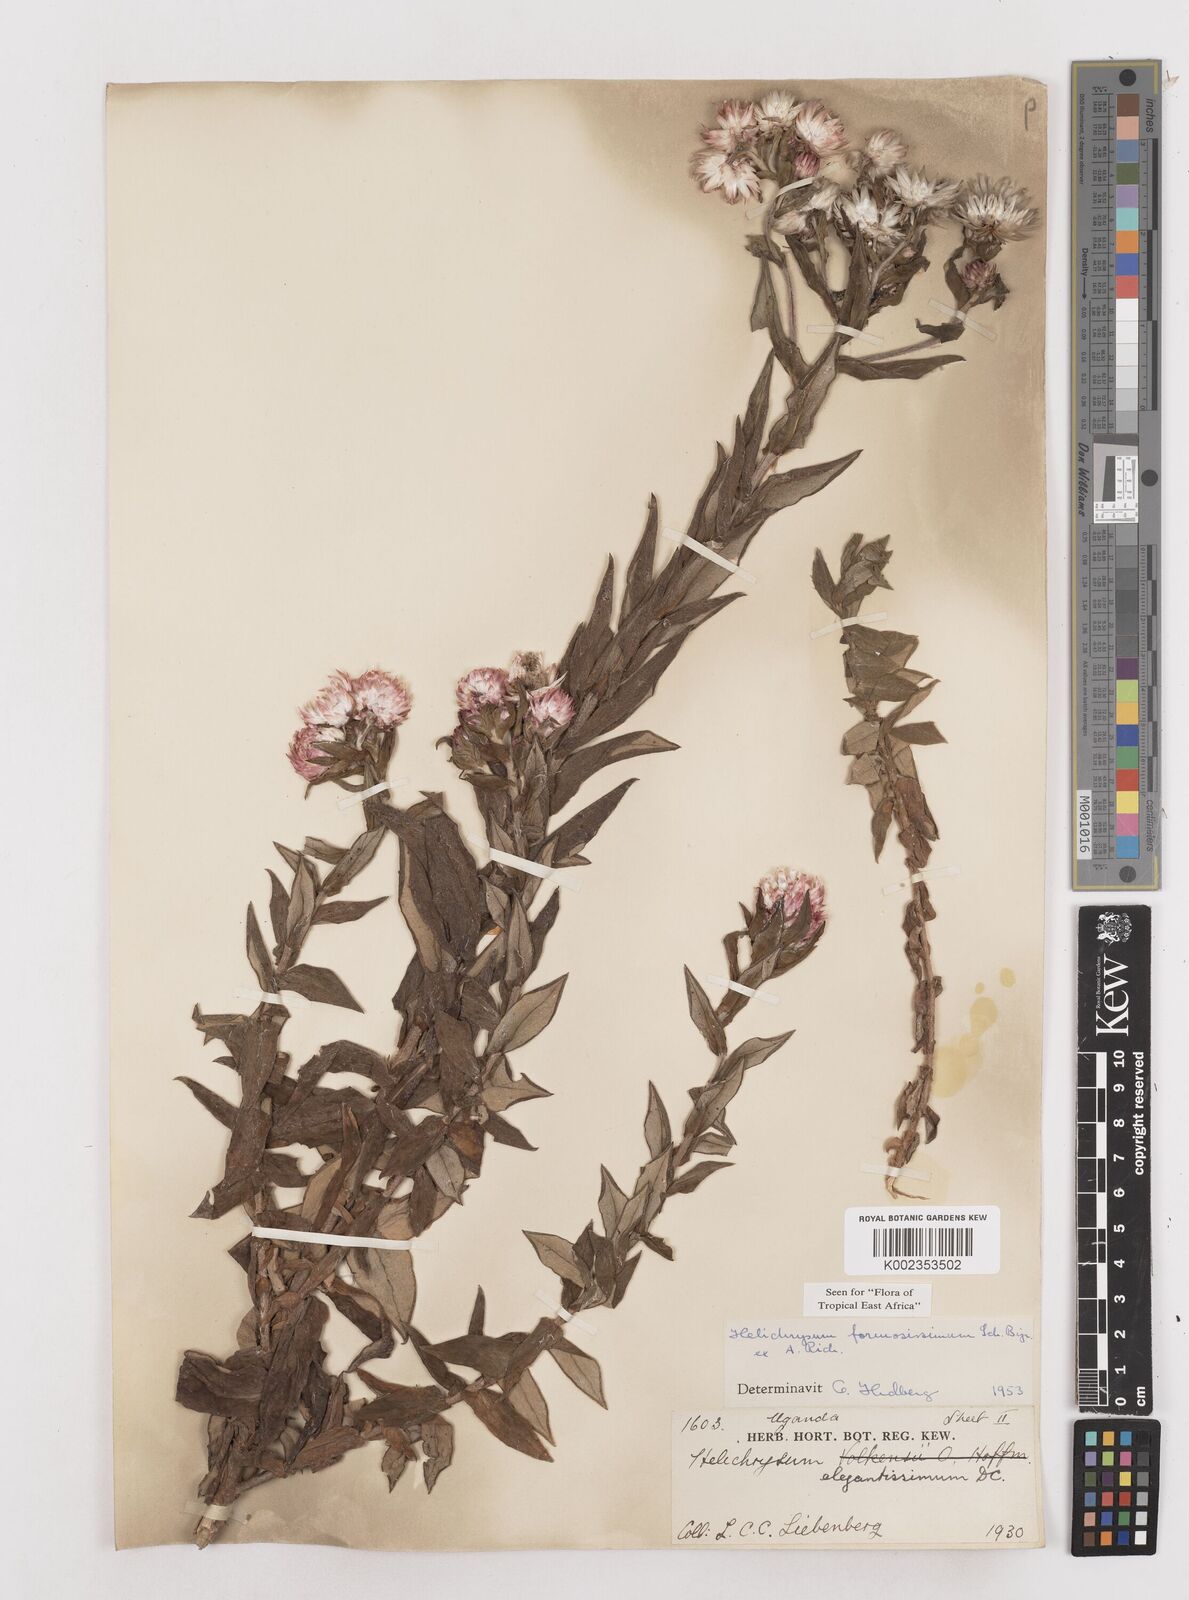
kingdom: Plantae
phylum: Tracheophyta
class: Magnoliopsida
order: Asterales
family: Asteraceae
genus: Helichrysum
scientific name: Helichrysum formosissimum
